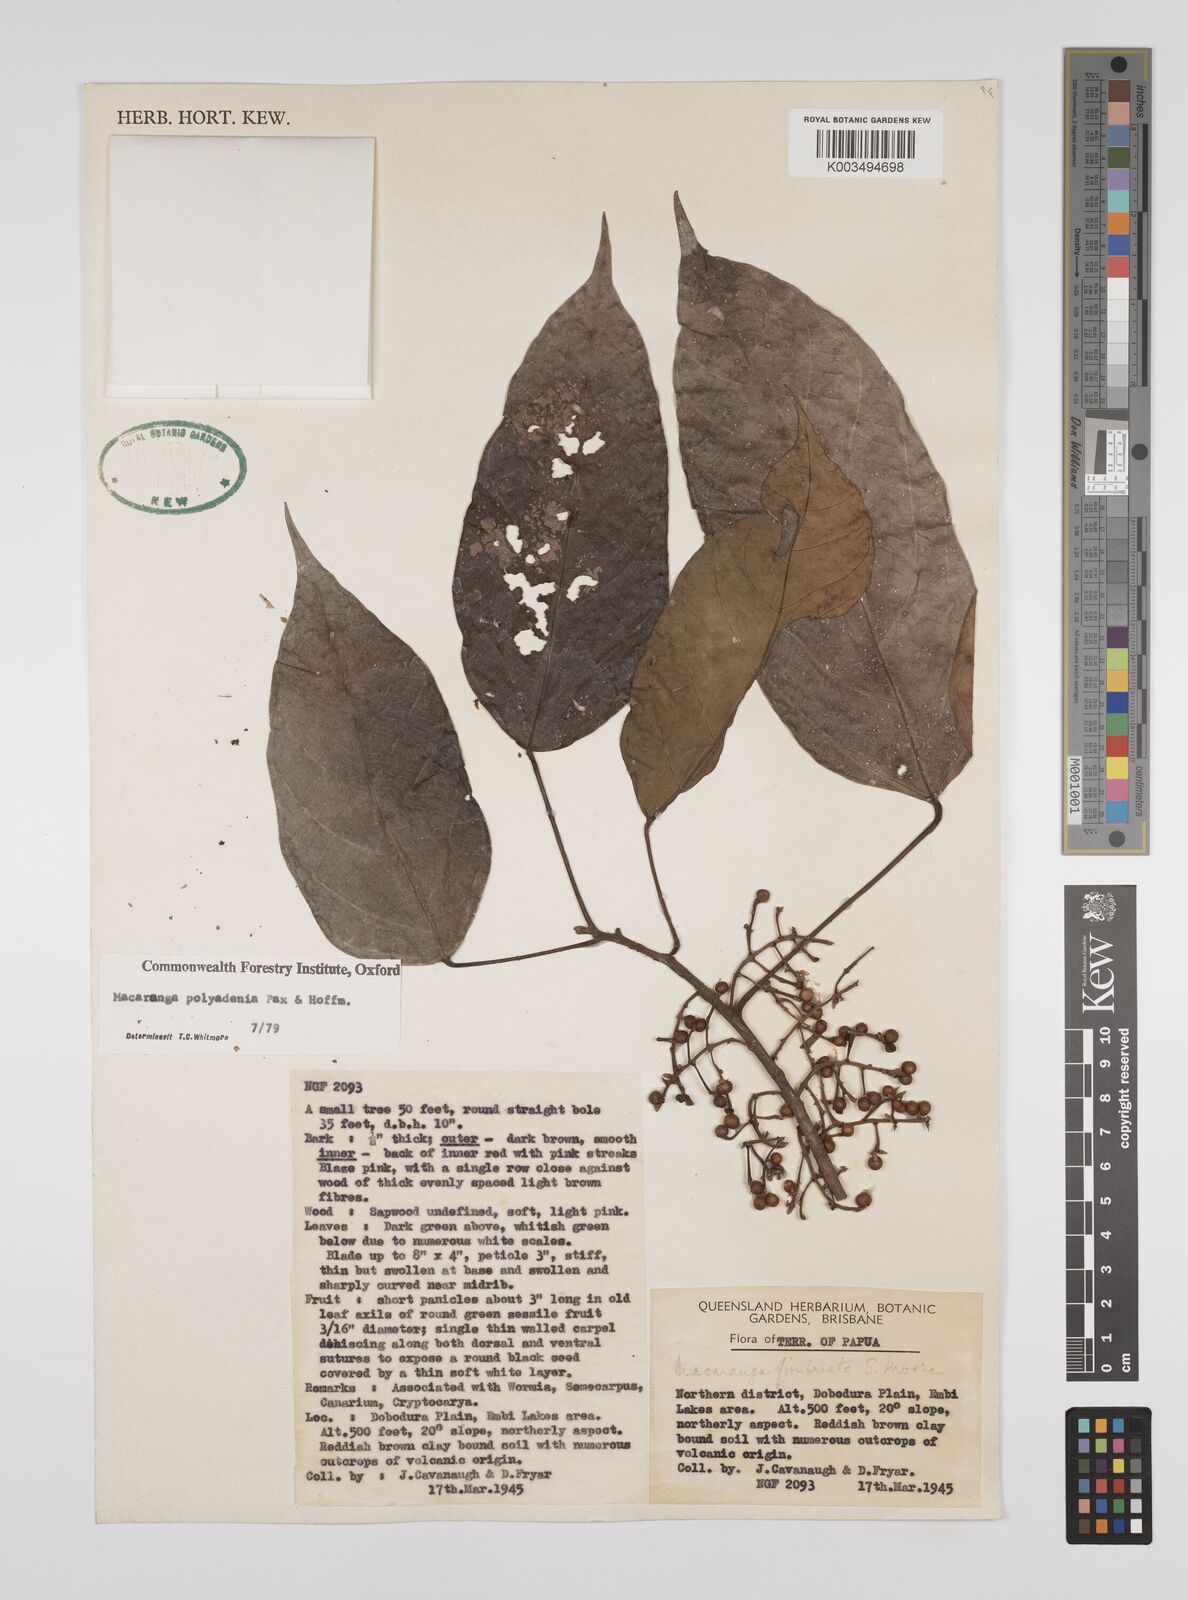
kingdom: Plantae
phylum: Tracheophyta
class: Magnoliopsida
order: Malpighiales
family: Euphorbiaceae
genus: Macaranga
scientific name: Macaranga polyadenia
